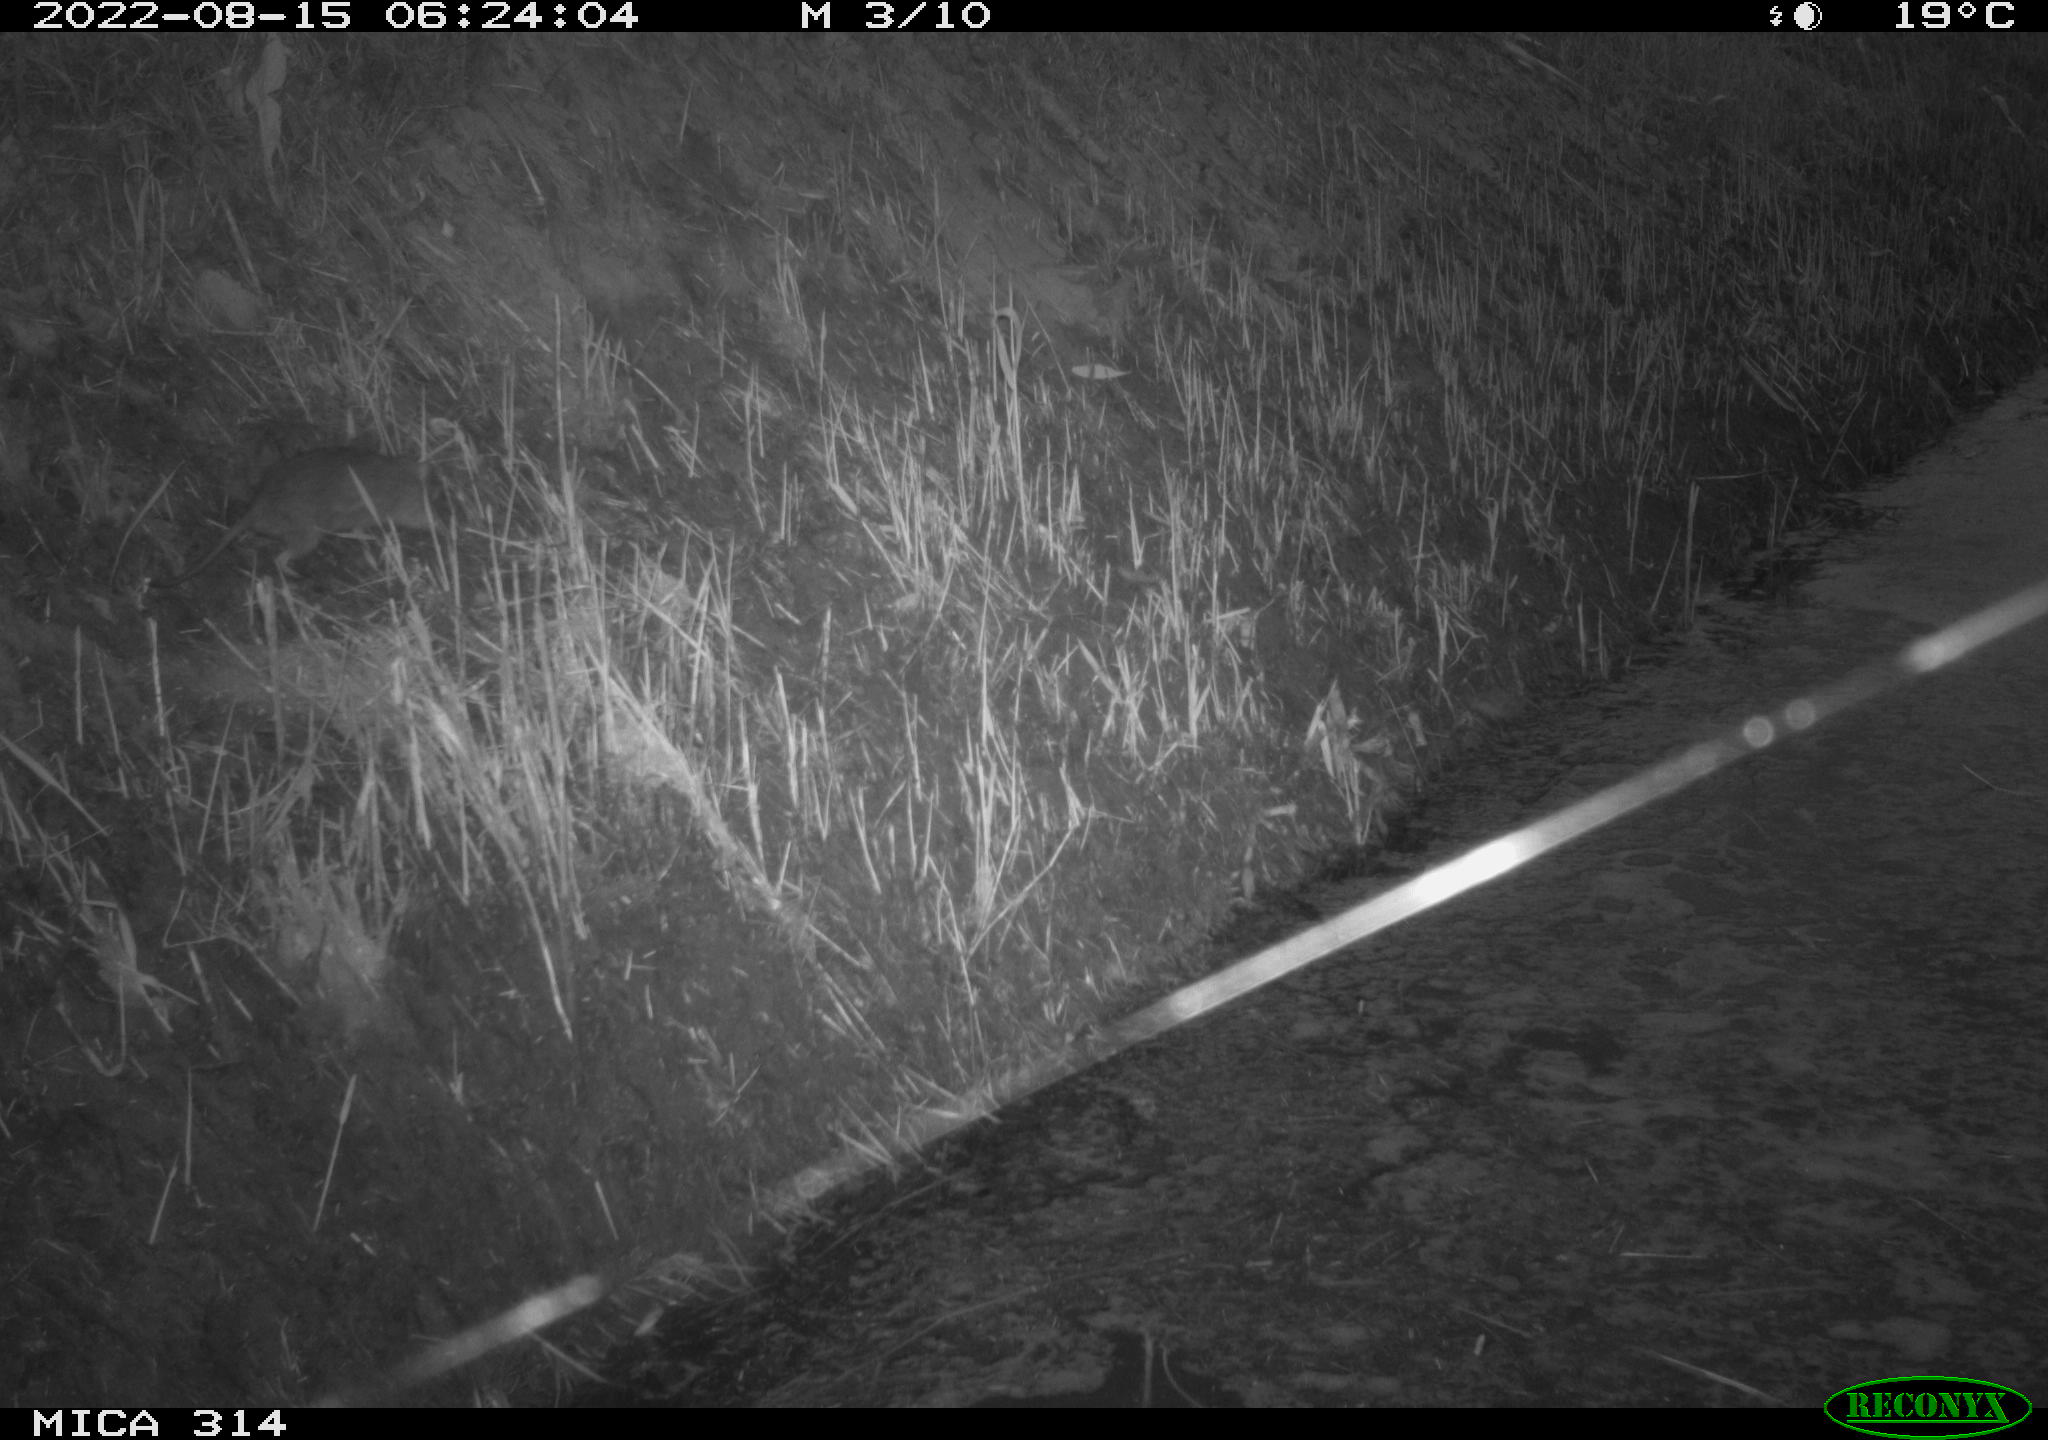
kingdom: Animalia
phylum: Chordata
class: Mammalia
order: Rodentia
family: Muridae
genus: Rattus
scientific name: Rattus norvegicus
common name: Brown rat
